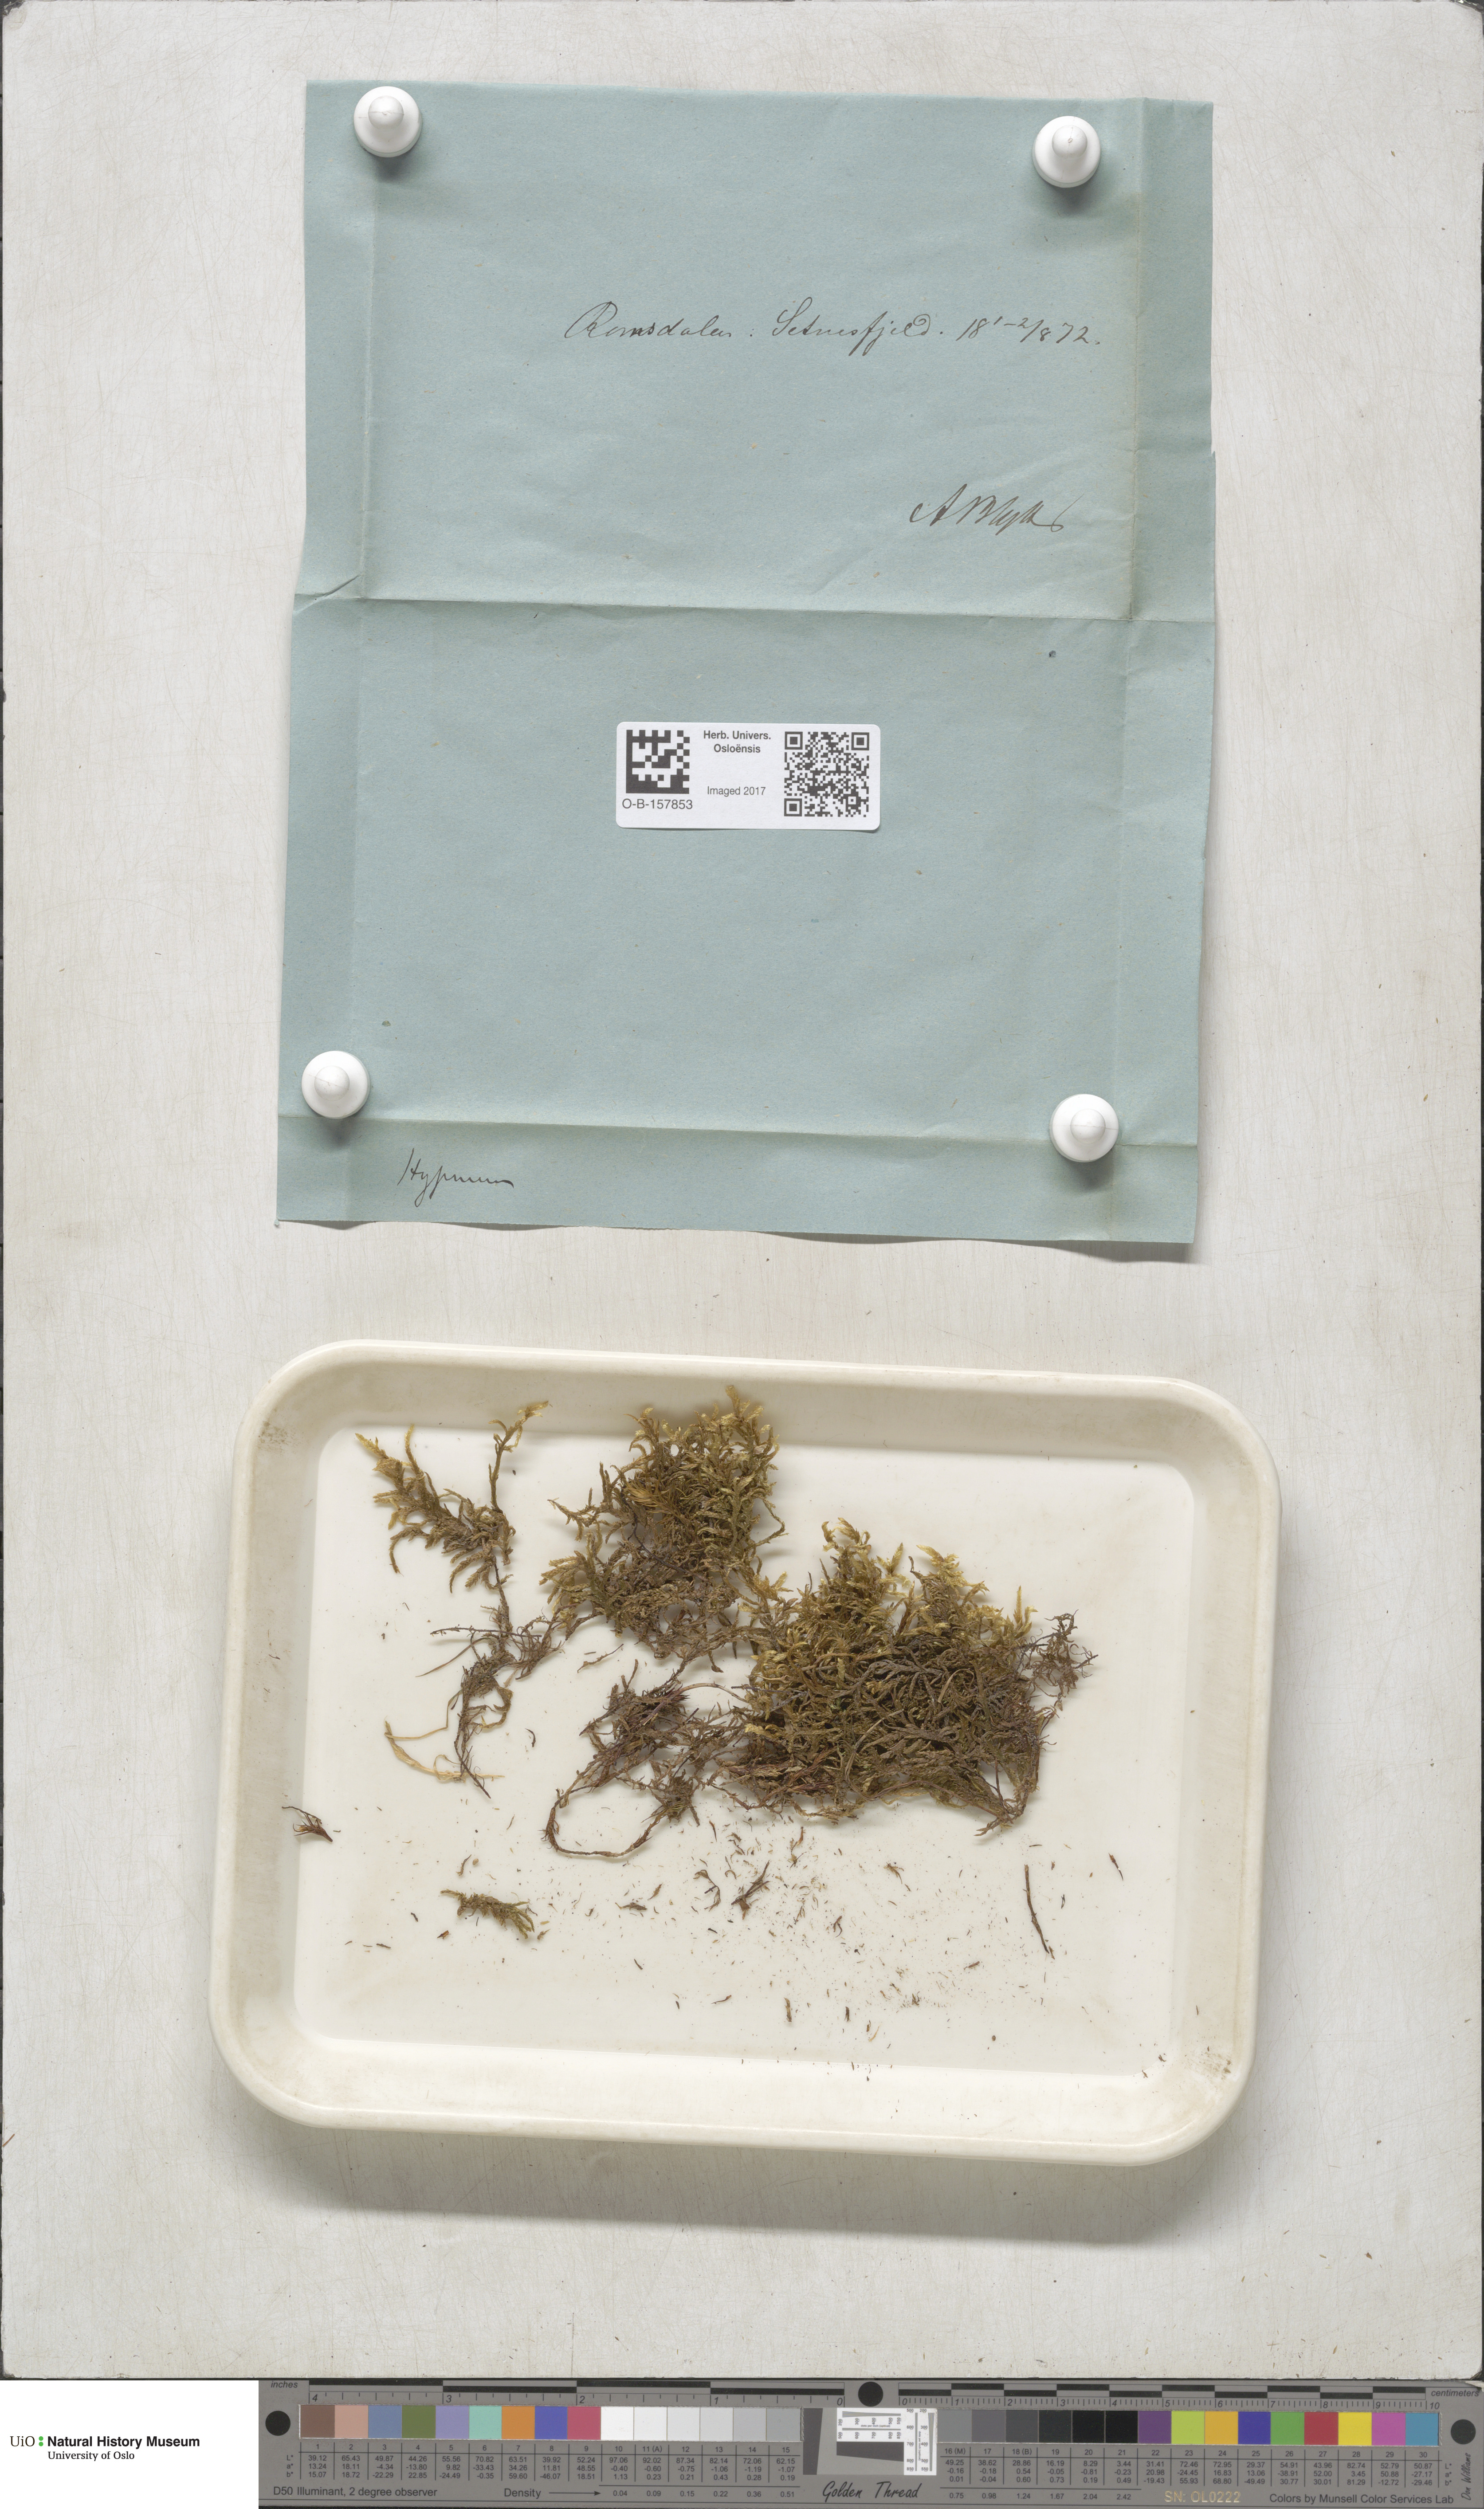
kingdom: Plantae
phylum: Bryophyta
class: Bryopsida
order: Hypnales
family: Hylocomiaceae
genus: Pleurozium
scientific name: Pleurozium schreberi
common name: Red-stemmed feather moss
